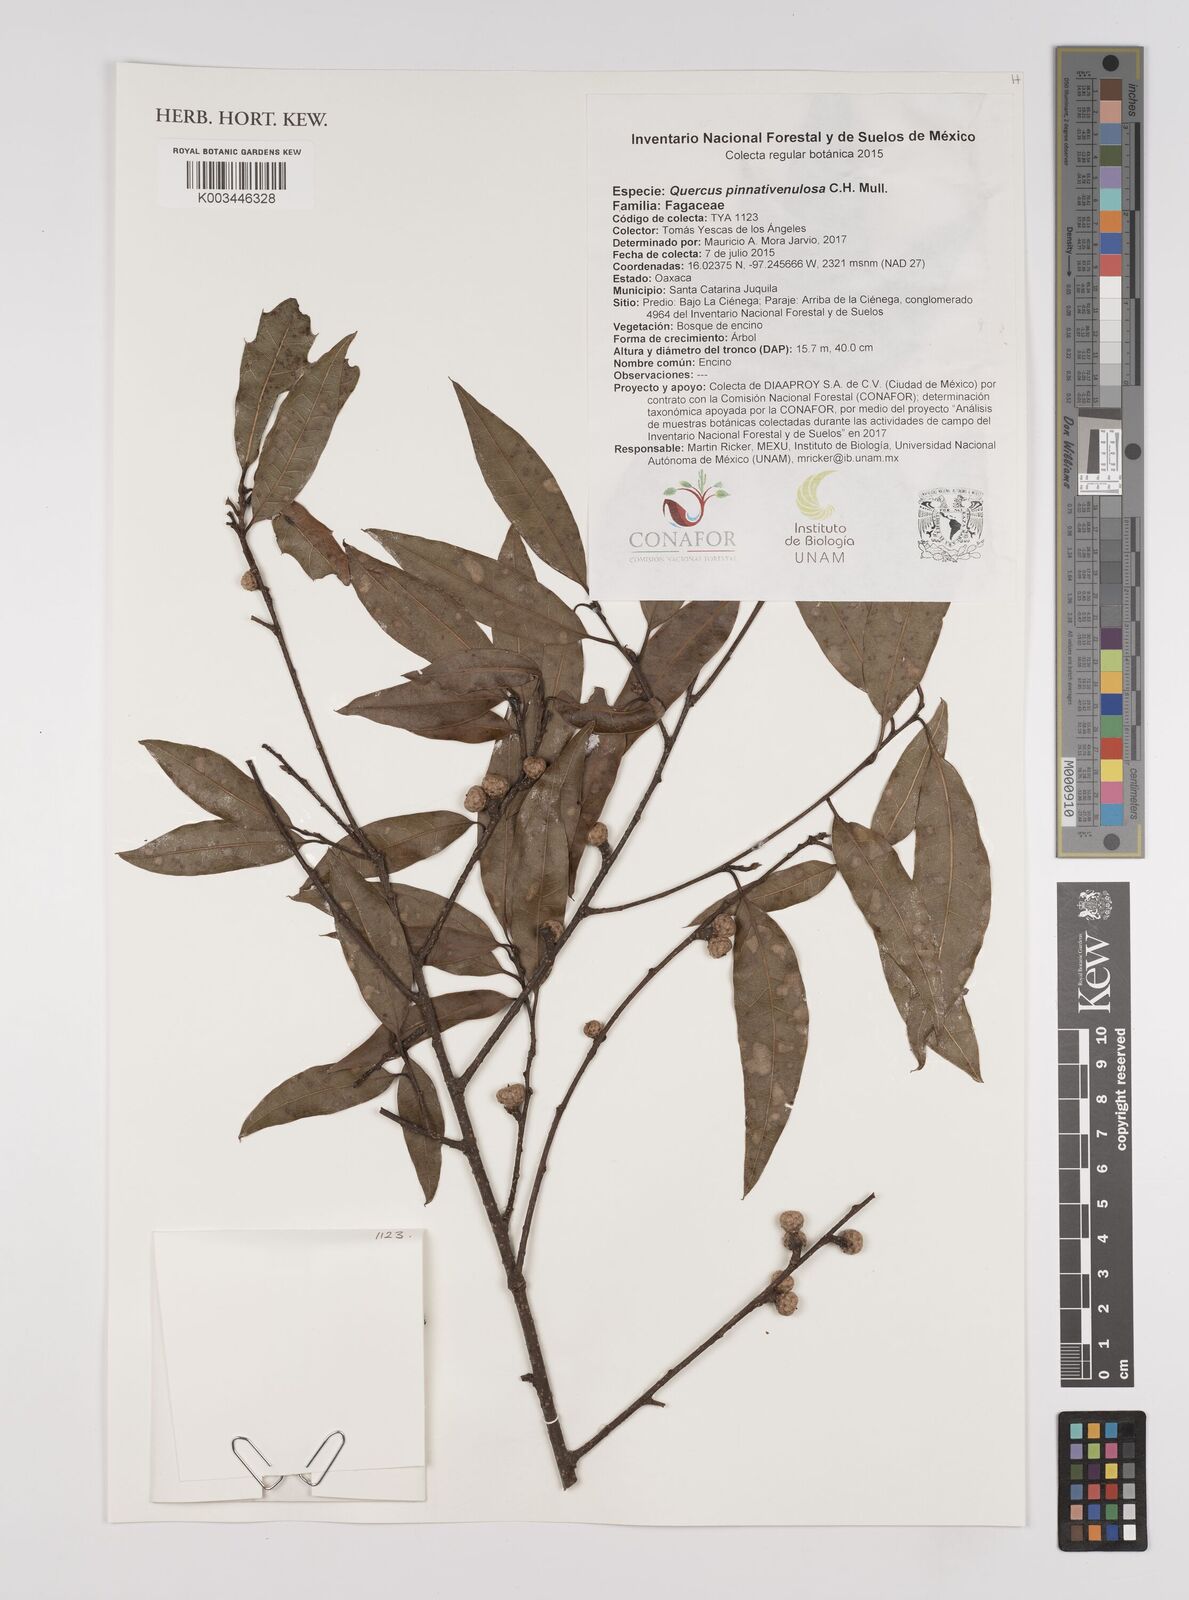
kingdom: Plantae
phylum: Tracheophyta
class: Magnoliopsida
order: Fagales
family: Fagaceae
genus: Quercus
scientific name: Quercus pinnativenulosa
